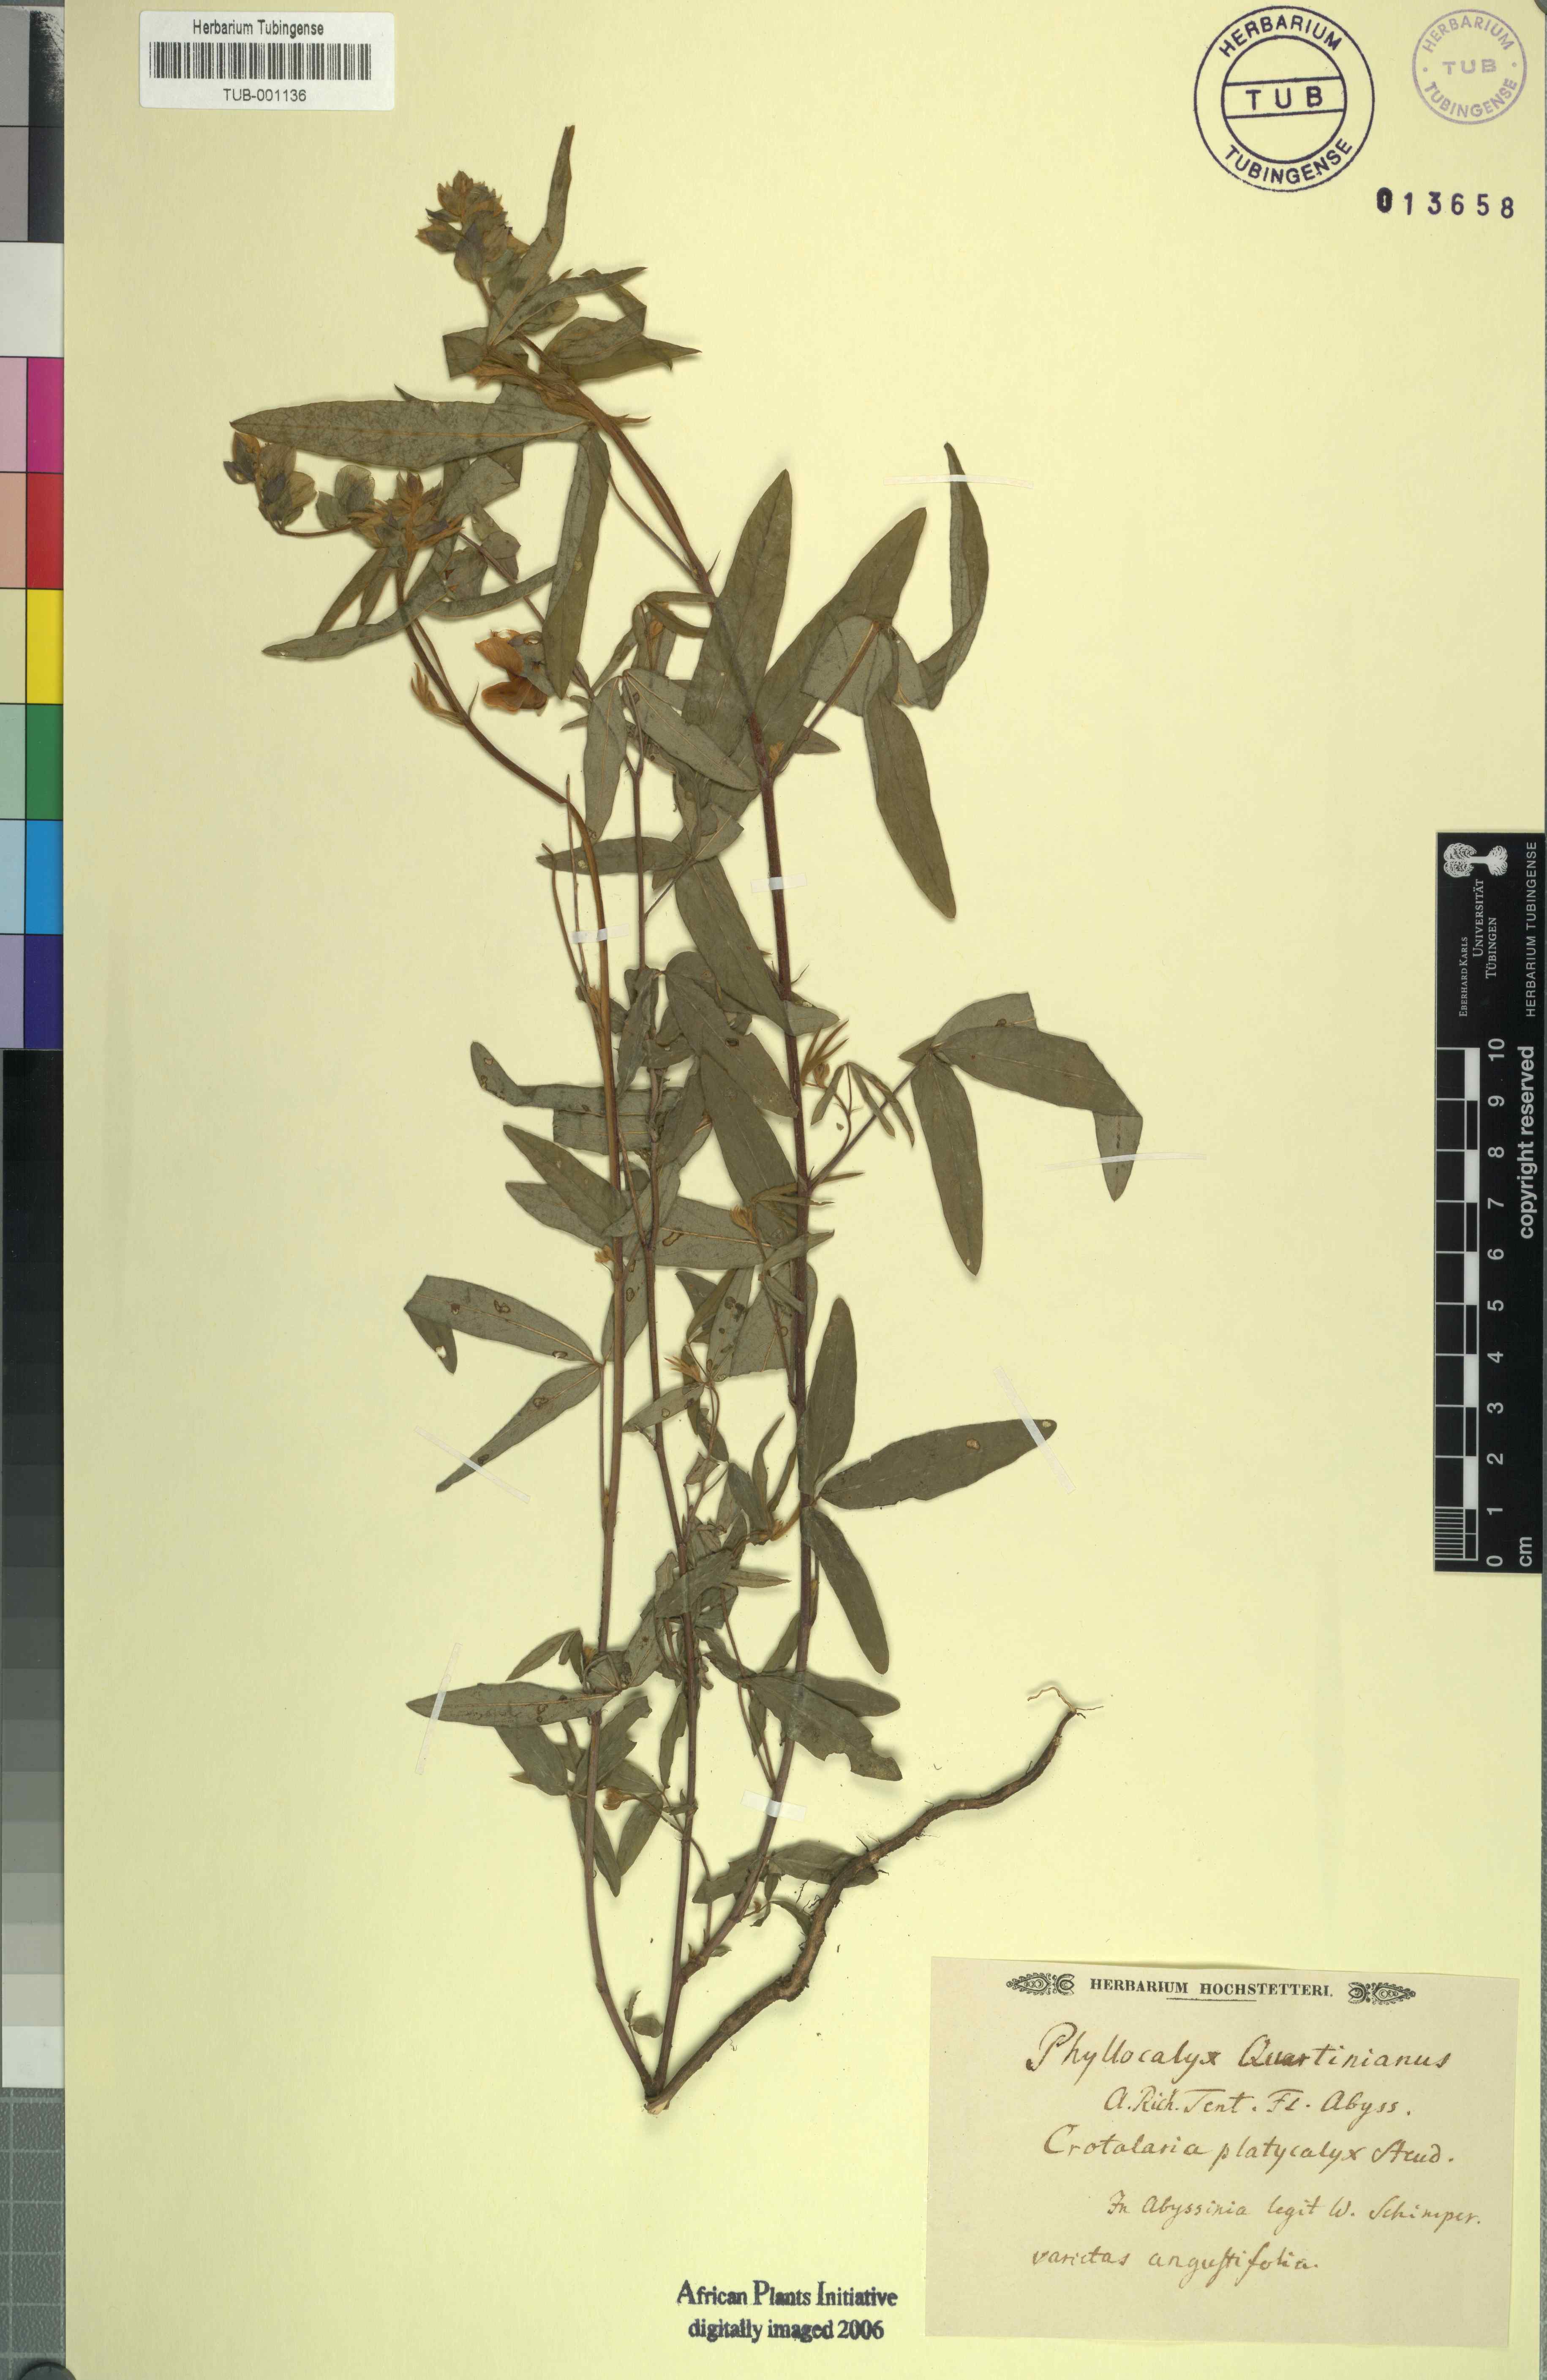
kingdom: Plantae
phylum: Tracheophyta
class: Magnoliopsida
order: Fabales
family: Fabaceae
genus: Crotalaria
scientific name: Crotalaria quartiniana
